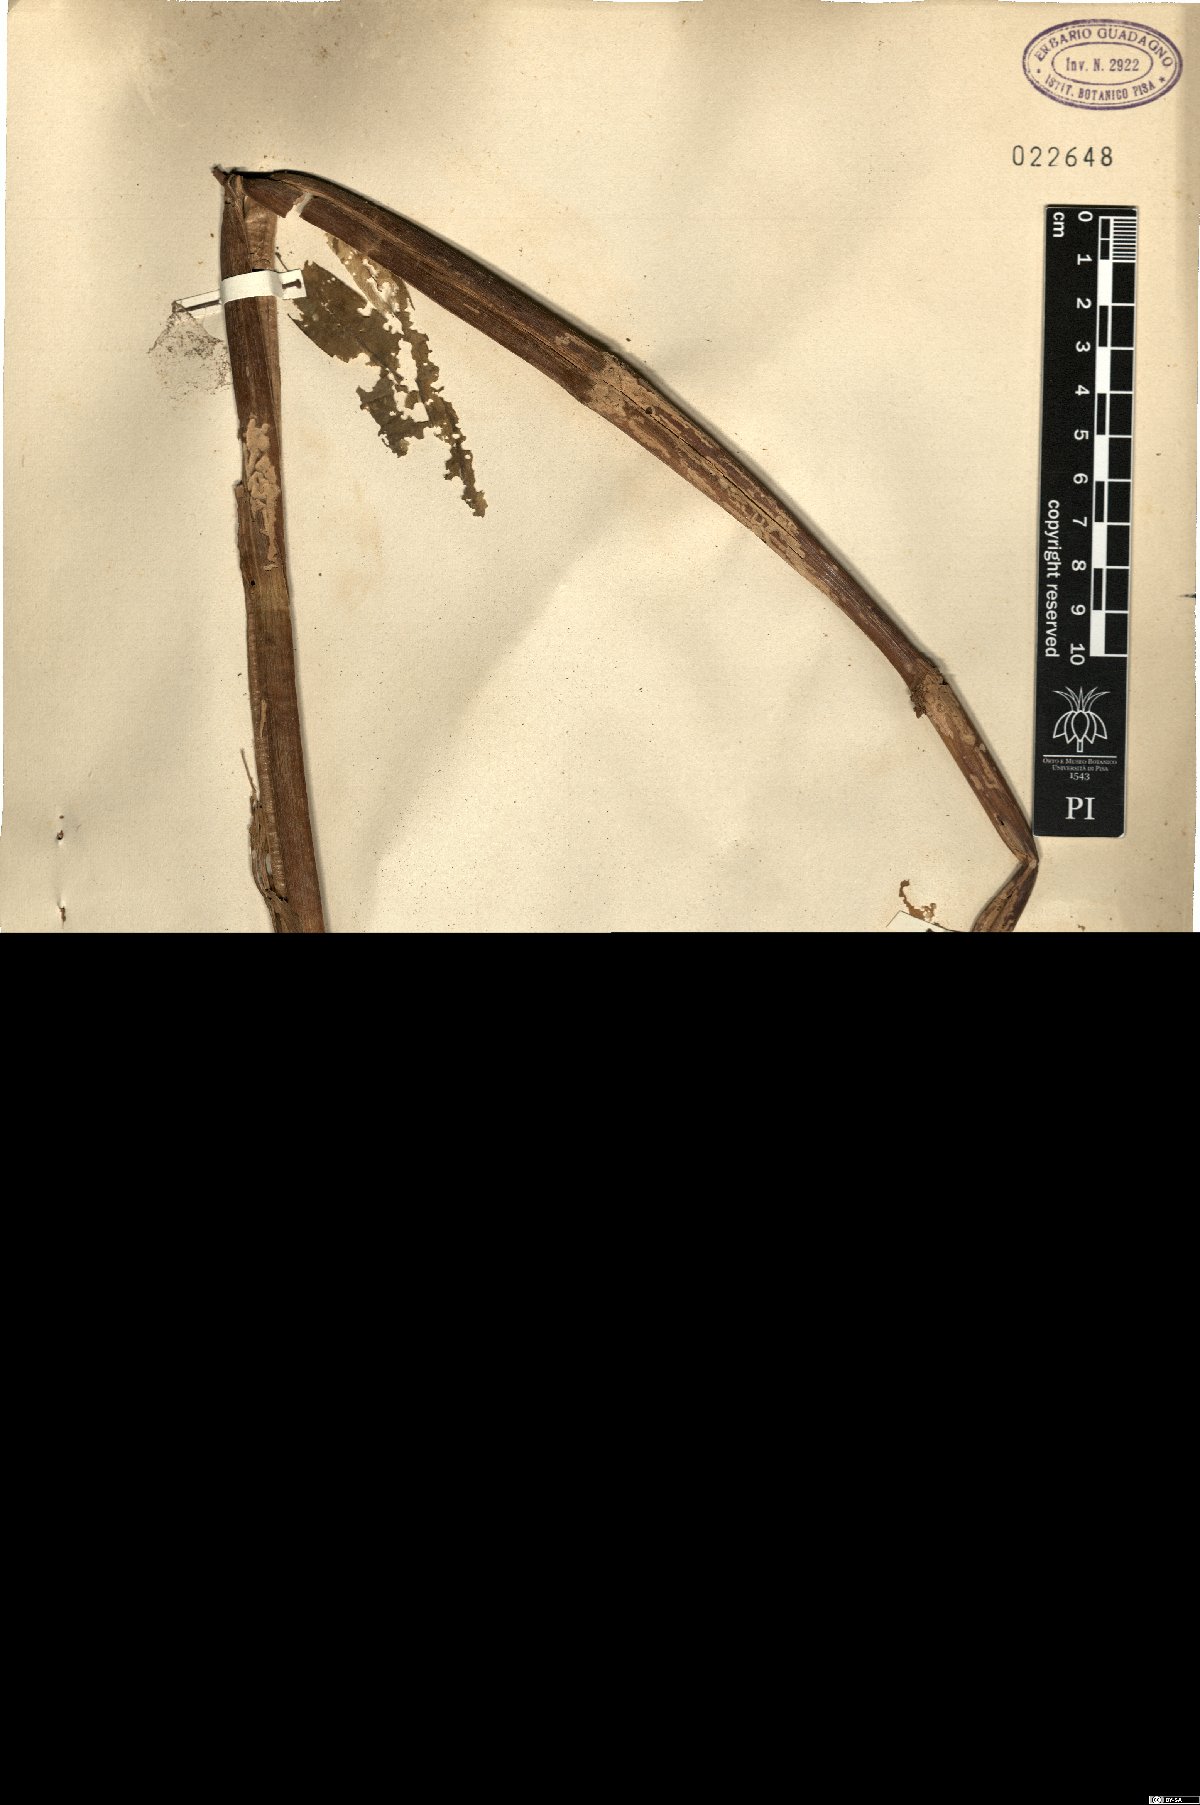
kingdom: Plantae
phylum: Tracheophyta
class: Magnoliopsida
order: Gentianales
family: Gentianaceae
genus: Gentiana
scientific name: Gentiana lutea
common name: Great yellow gentian
